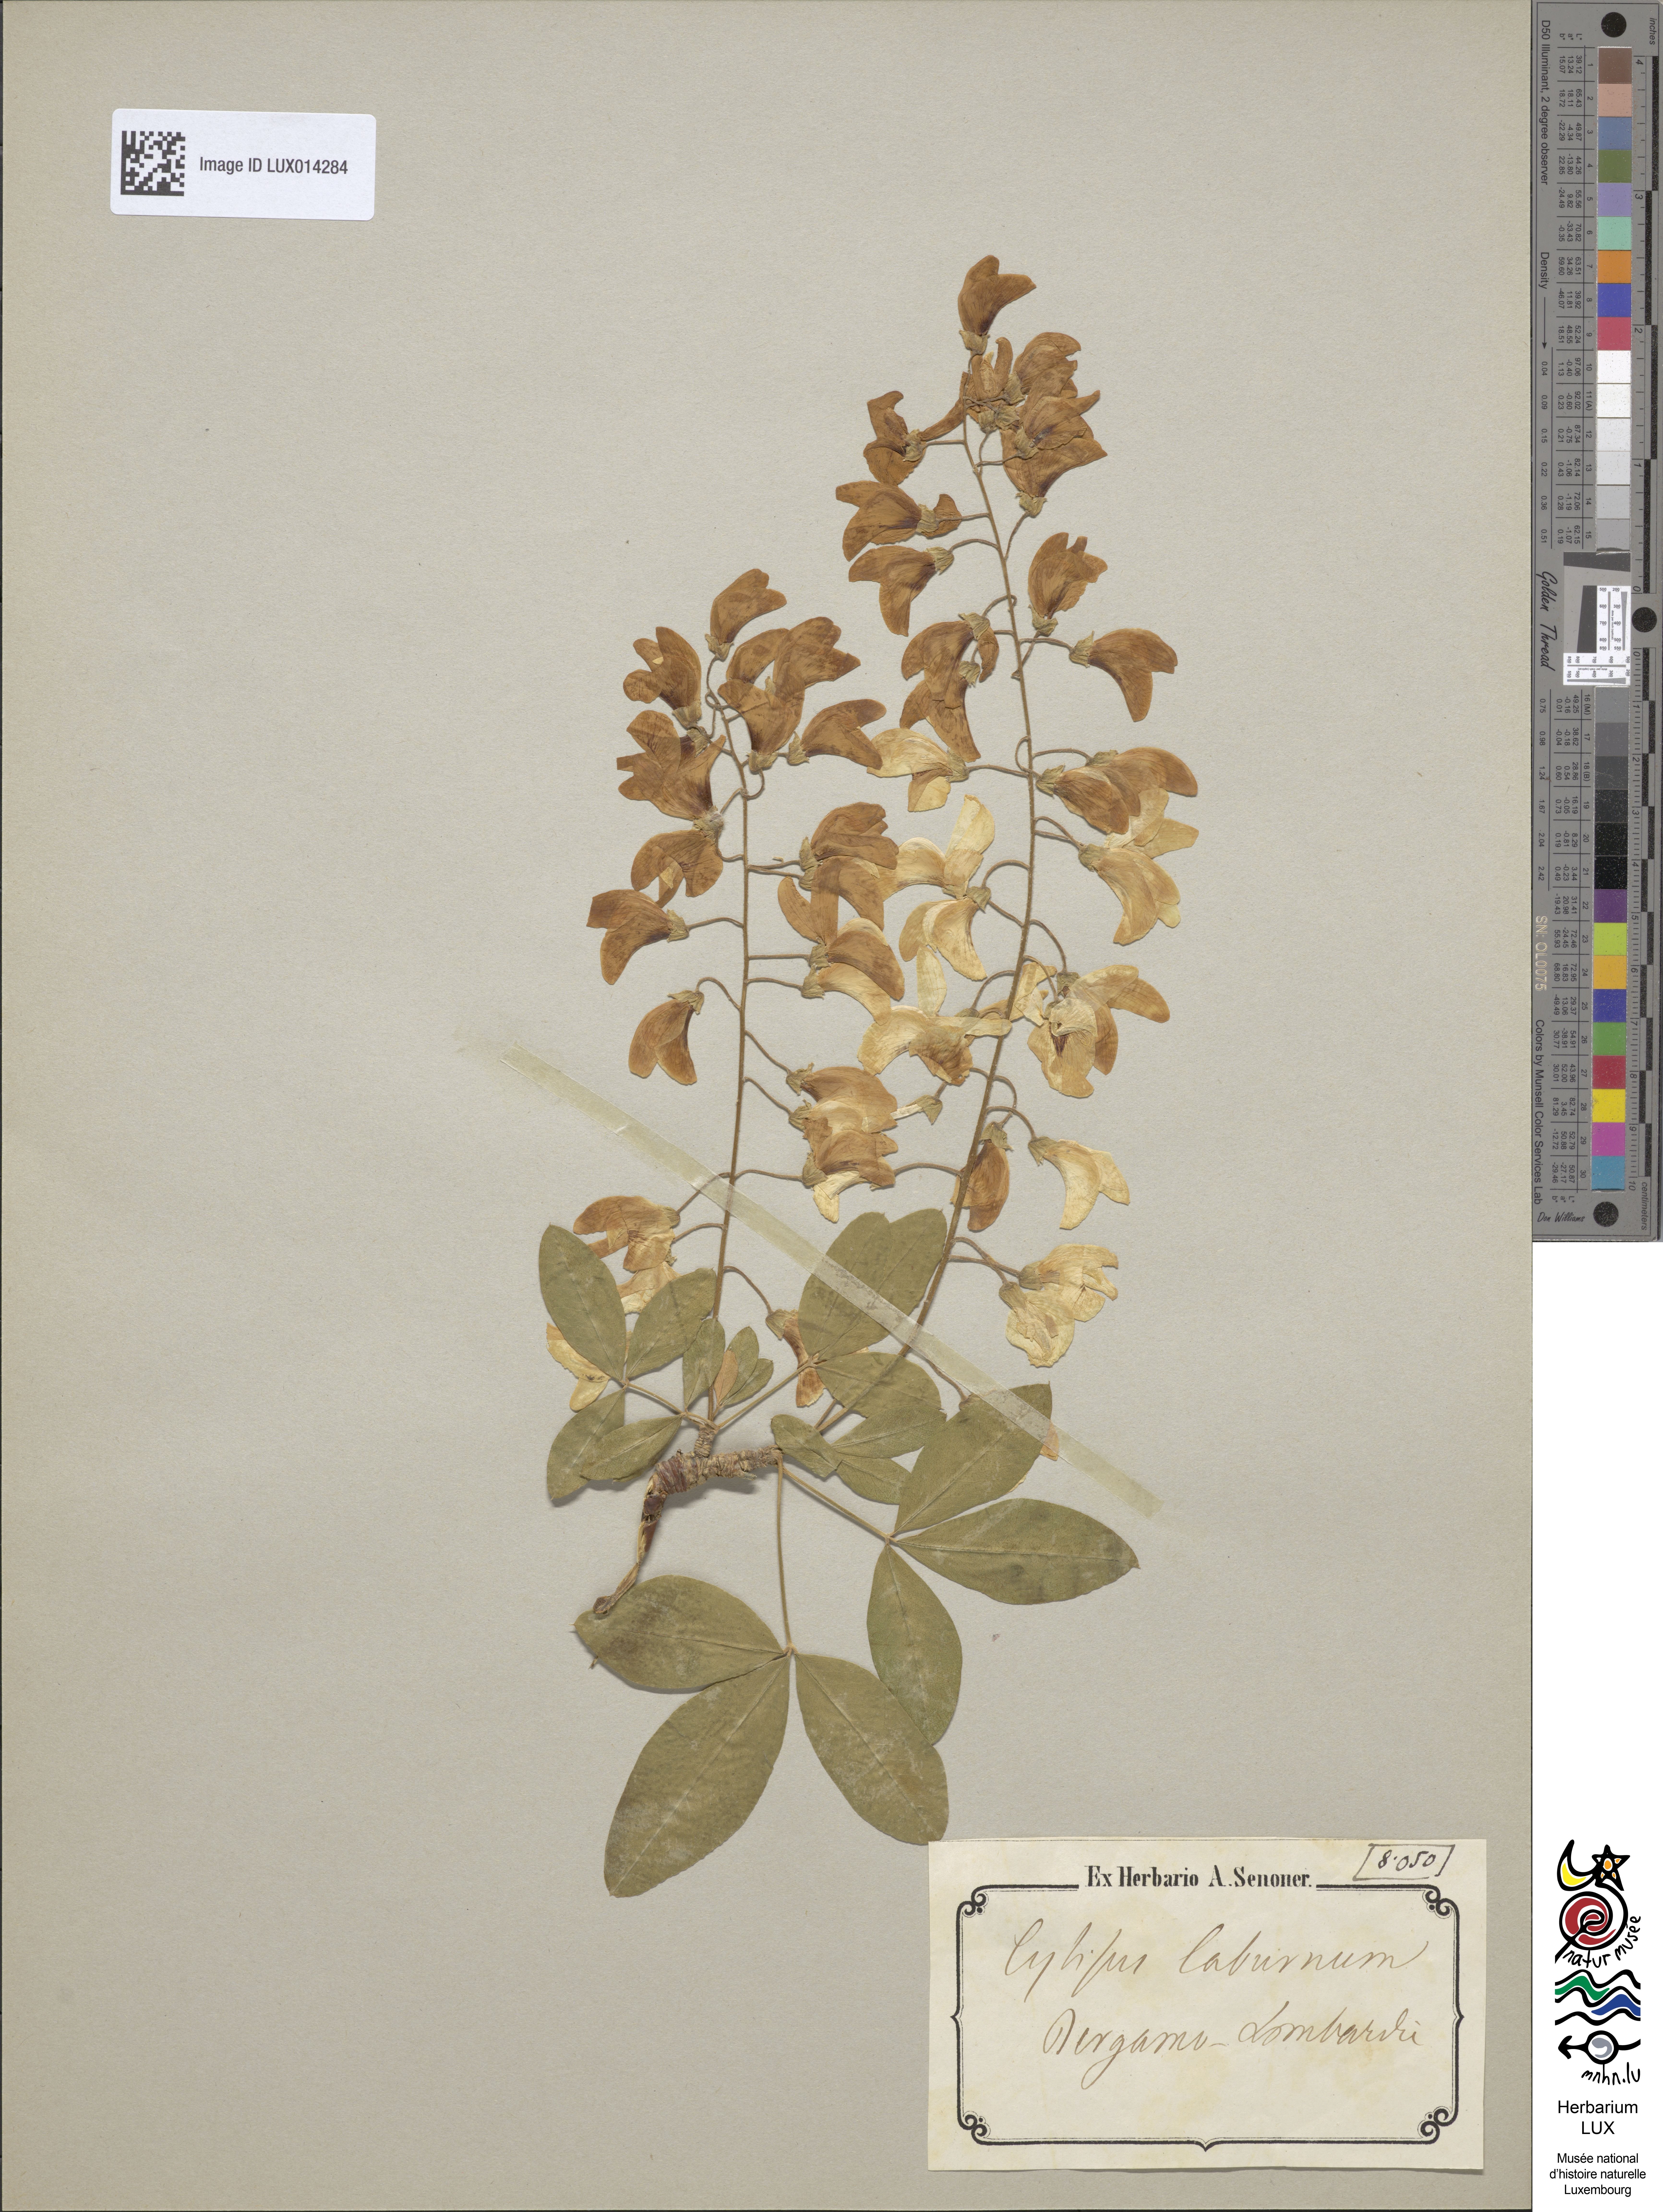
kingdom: Plantae
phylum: Tracheophyta
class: Magnoliopsida
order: Fabales
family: Fabaceae
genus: Laburnum
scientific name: Laburnum anagyroides
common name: Laburnum
